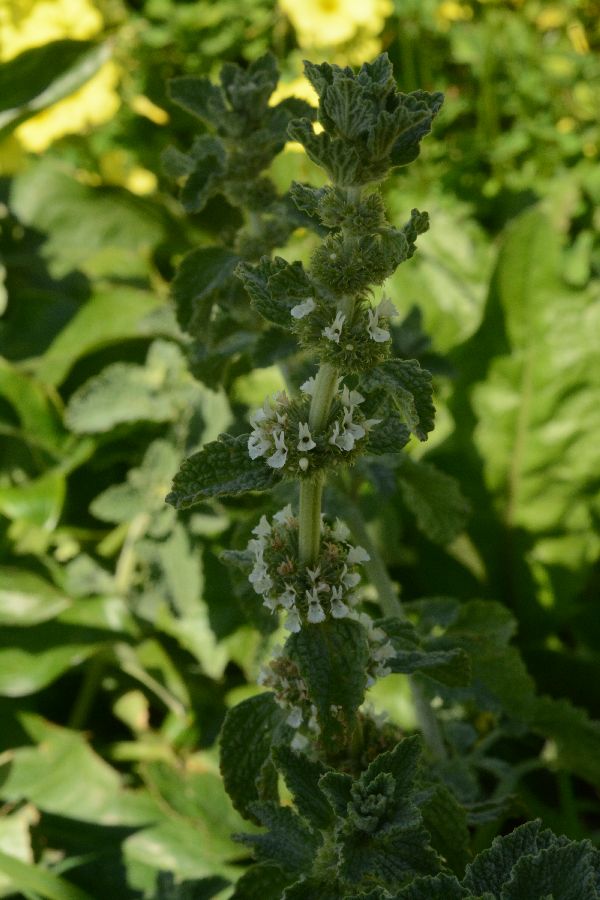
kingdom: Plantae
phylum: Tracheophyta
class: Magnoliopsida
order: Lamiales
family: Lamiaceae
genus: Marrubium
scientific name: Marrubium vulgare
